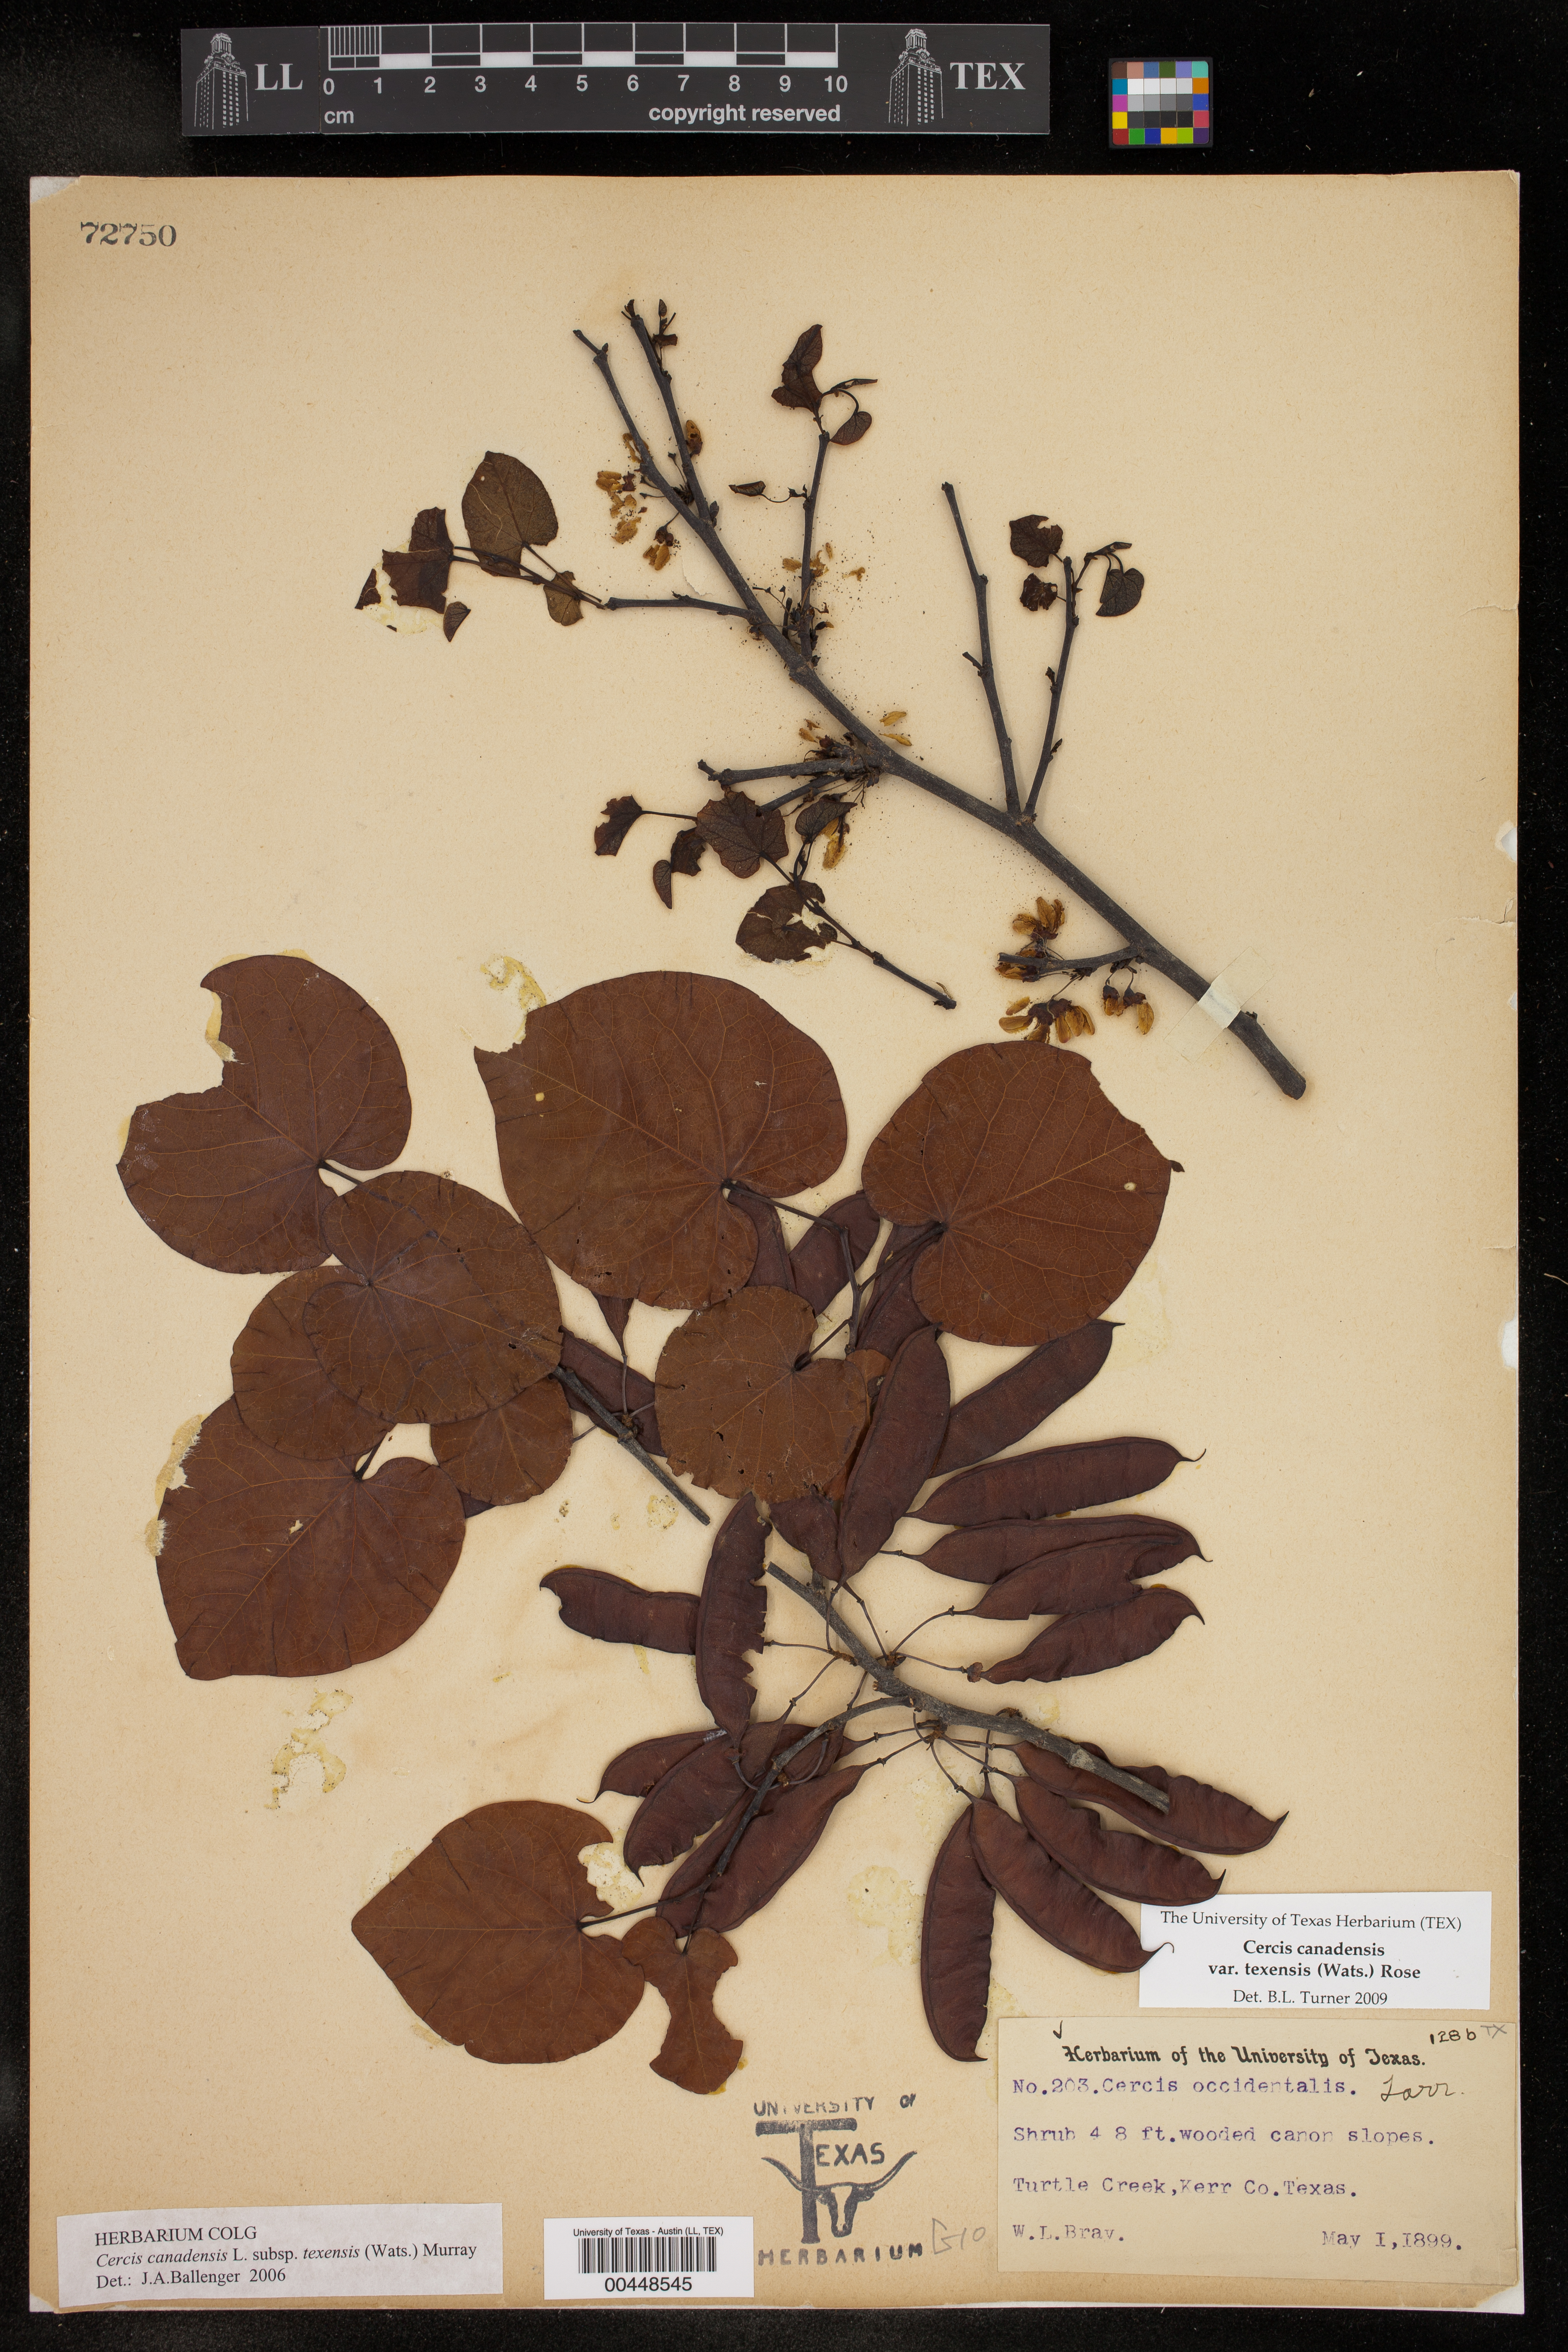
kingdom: Plantae
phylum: Tracheophyta
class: Magnoliopsida
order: Fabales
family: Fabaceae
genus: Cercis
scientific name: Cercis canadensis
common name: Eastern redbud
